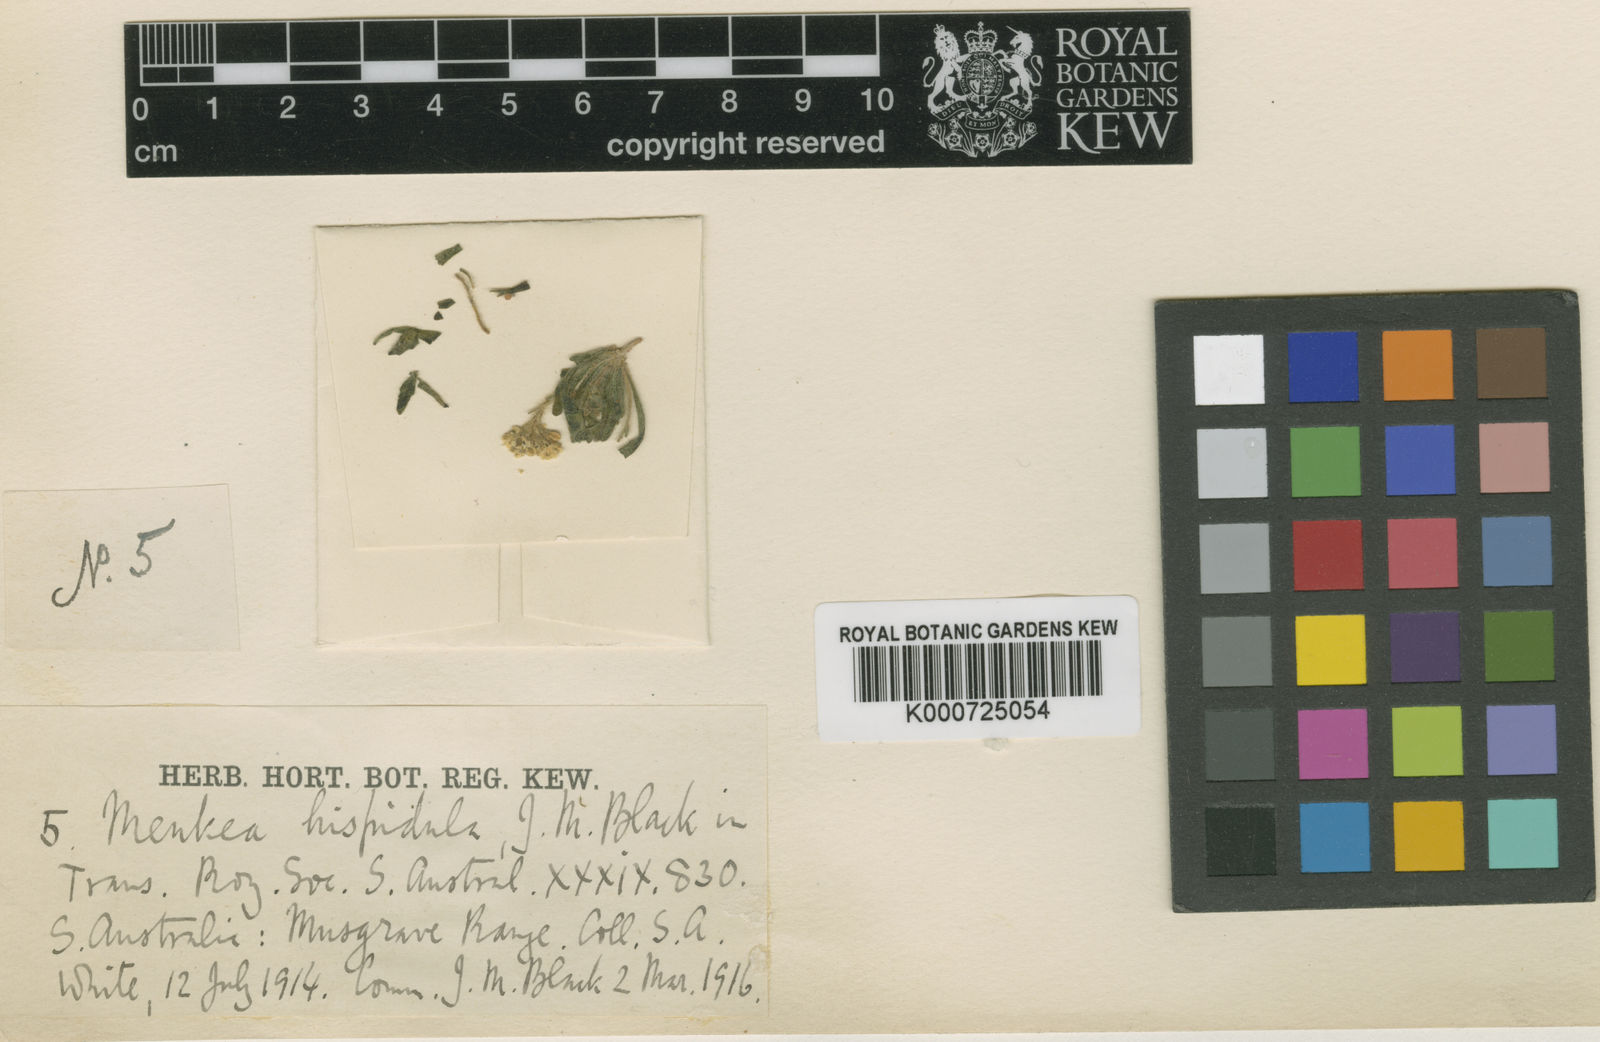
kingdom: Plantae
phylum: Tracheophyta
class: Magnoliopsida
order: Brassicales
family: Brassicaceae
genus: Menkea
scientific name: Menkea villosula
